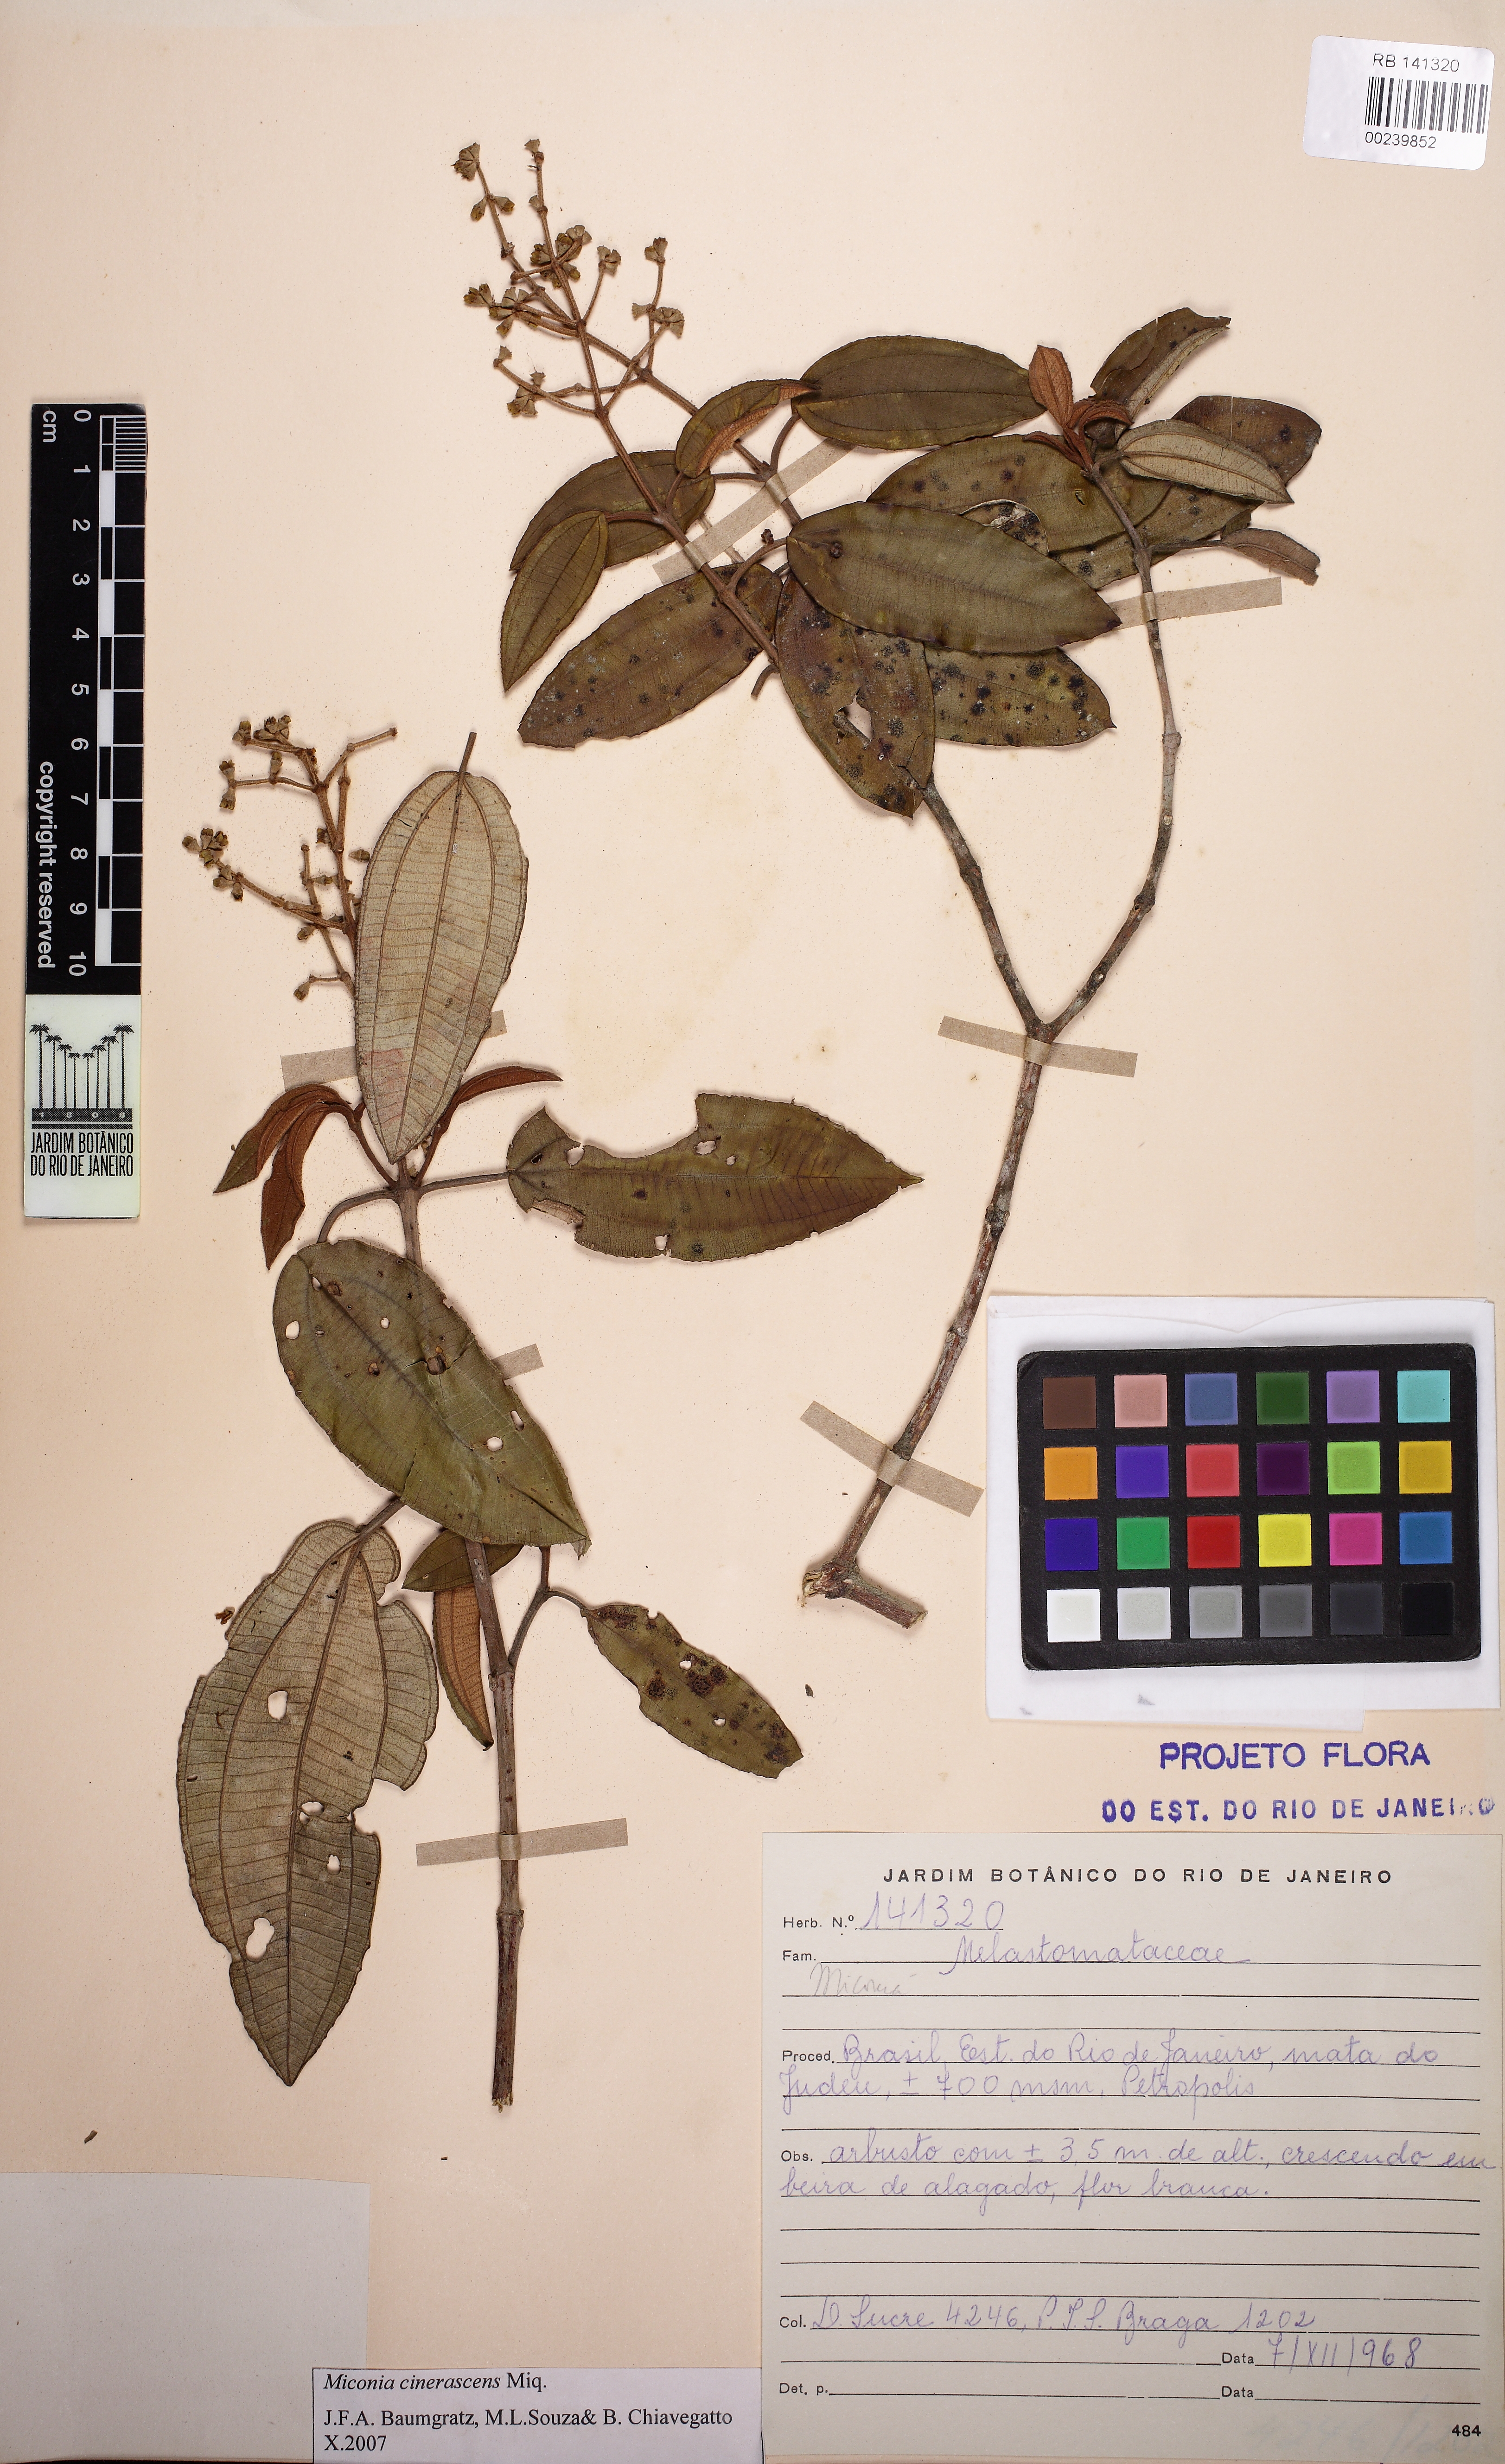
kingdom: Plantae
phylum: Tracheophyta
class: Magnoliopsida
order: Myrtales
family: Melastomataceae
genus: Miconia
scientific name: Miconia cinerascens
